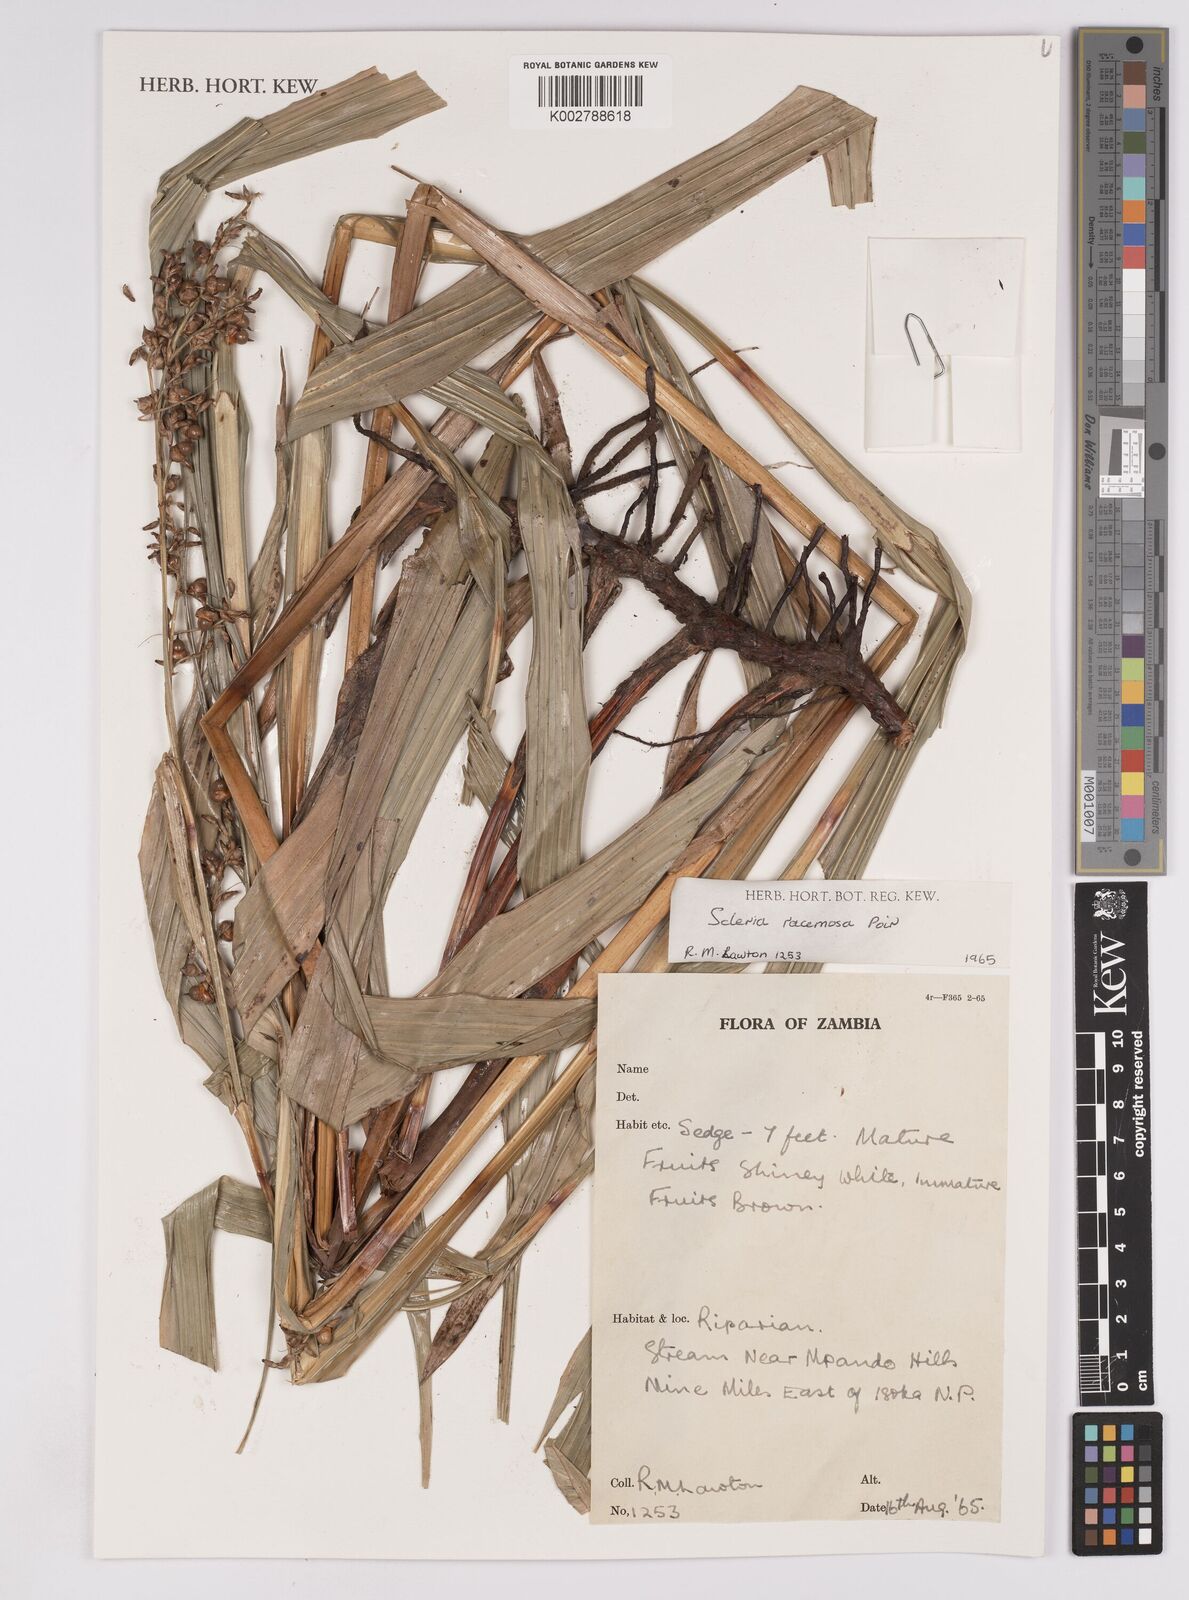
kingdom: Plantae
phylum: Tracheophyta
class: Liliopsida
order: Poales
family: Cyperaceae
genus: Scleria
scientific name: Scleria racemosa
